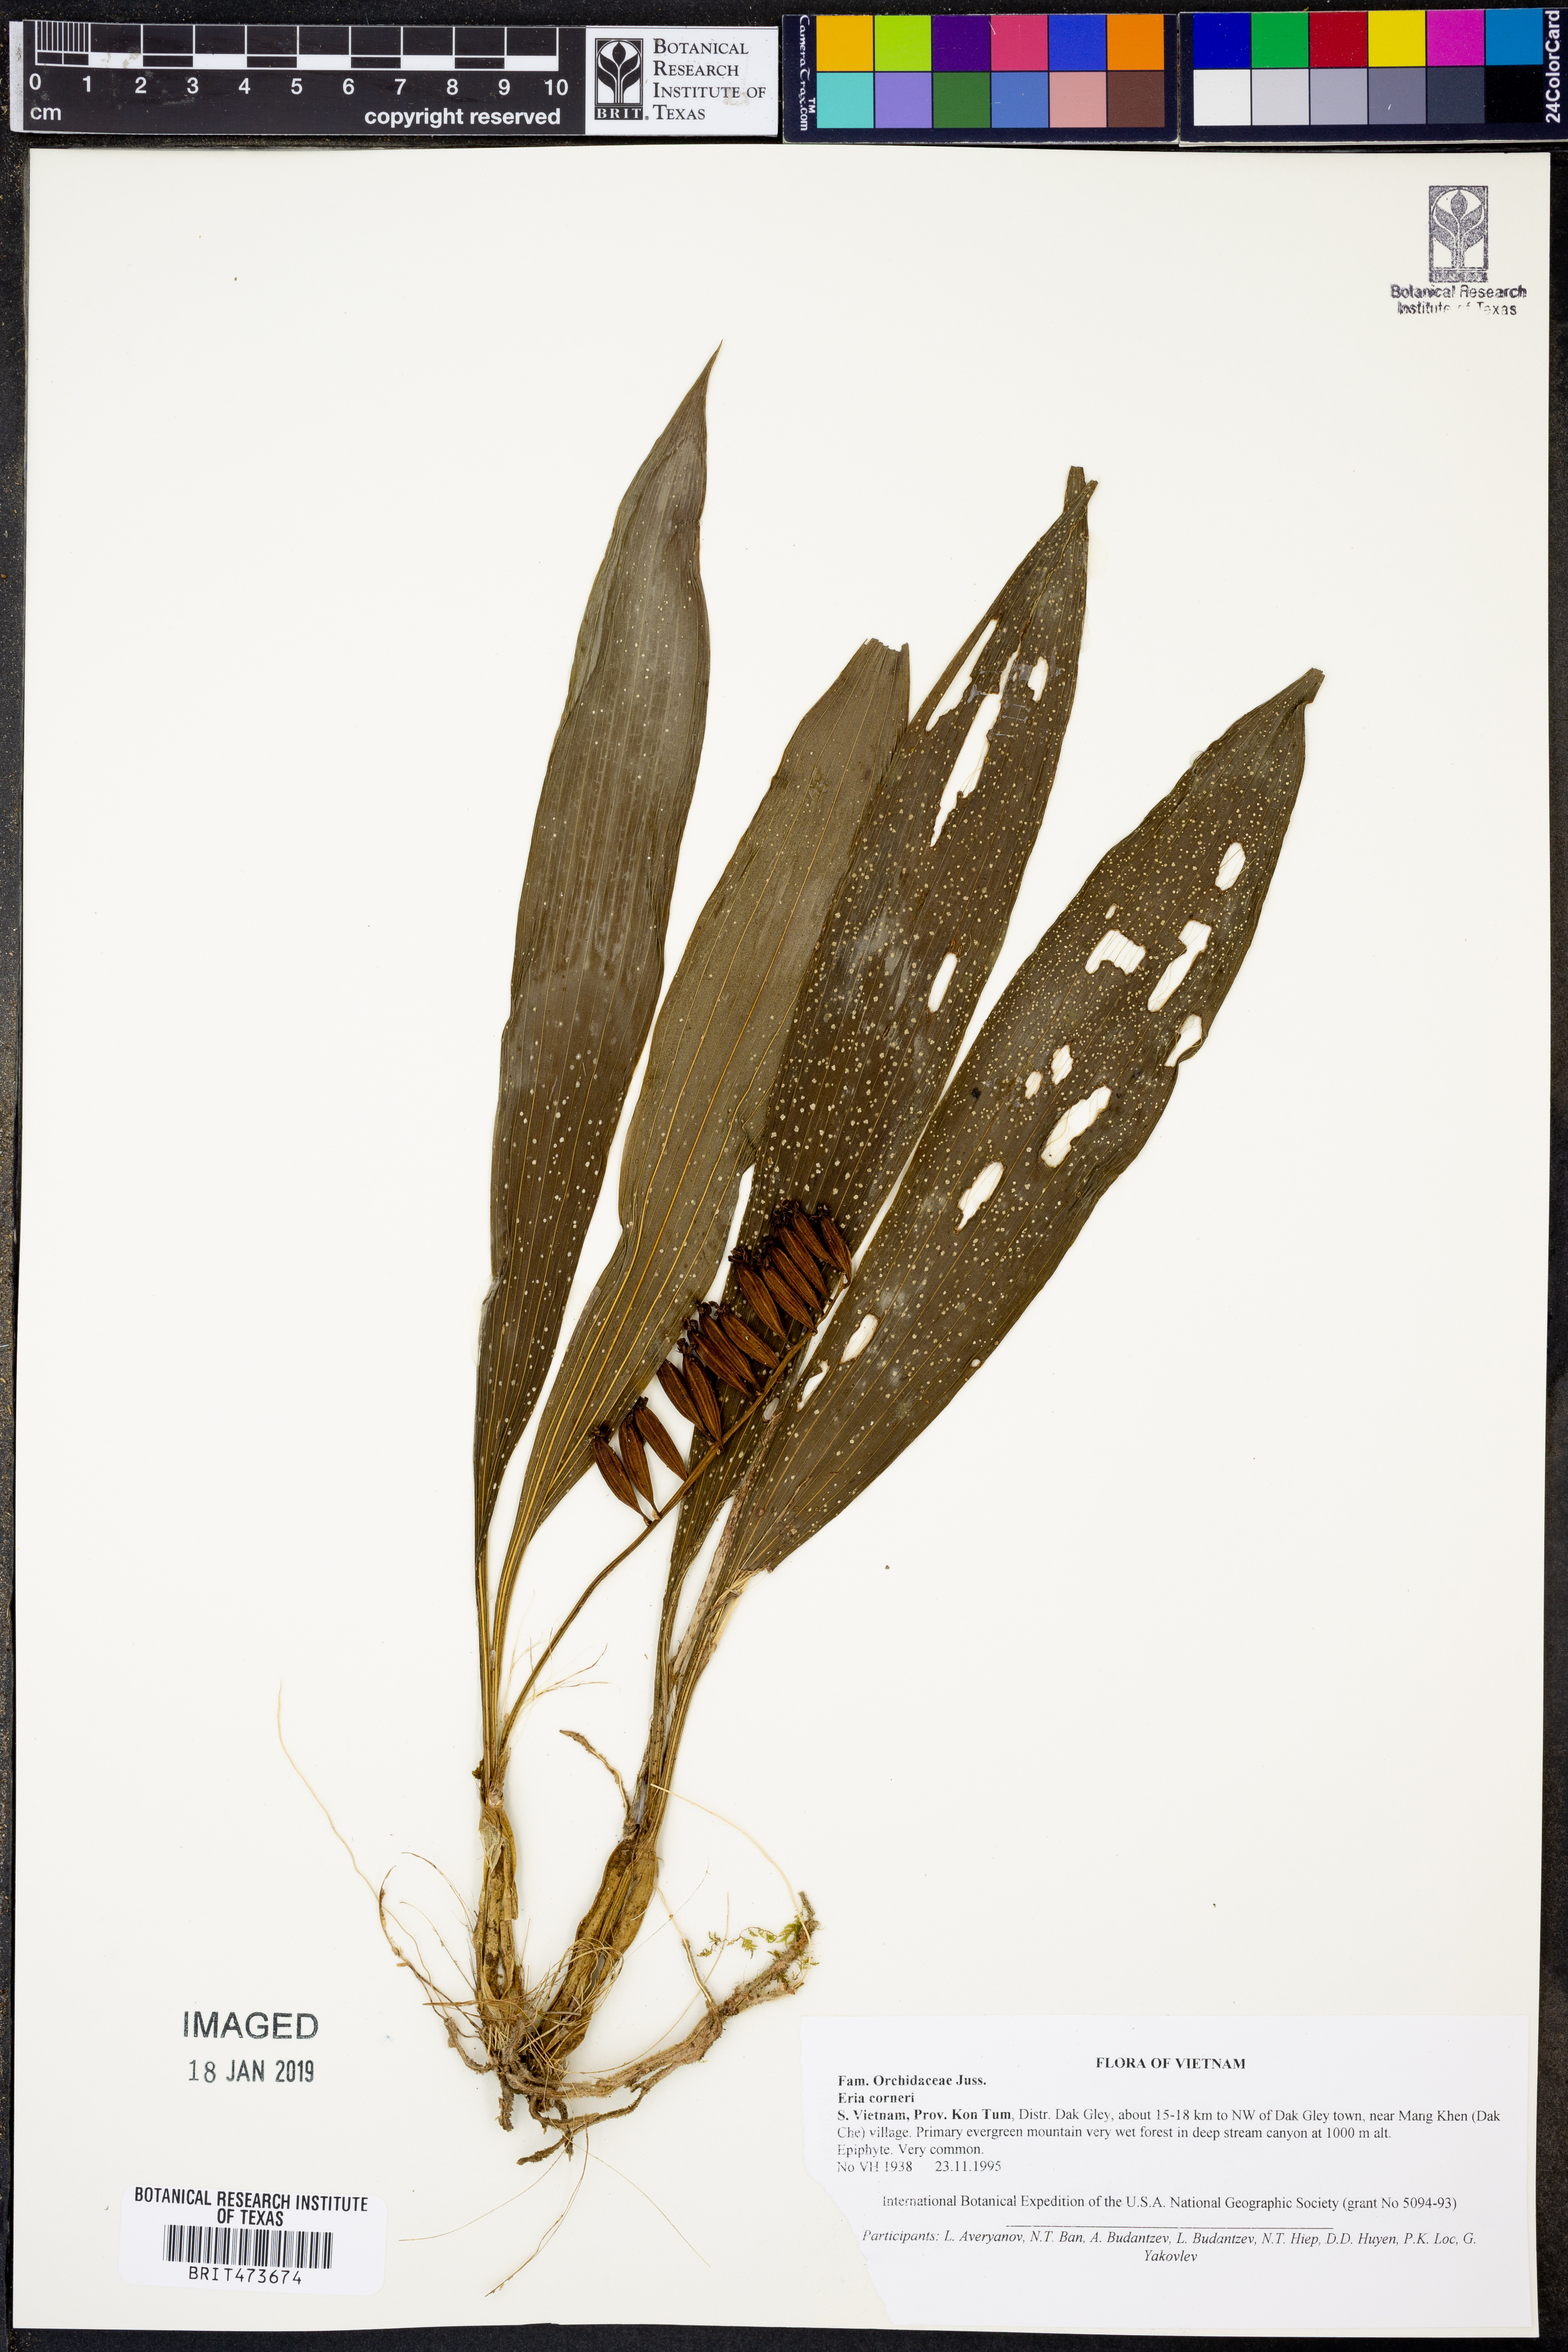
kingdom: Plantae
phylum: Tracheophyta
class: Liliopsida
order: Asparagales
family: Orchidaceae
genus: Eria
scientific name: Eria scabrilinguis
